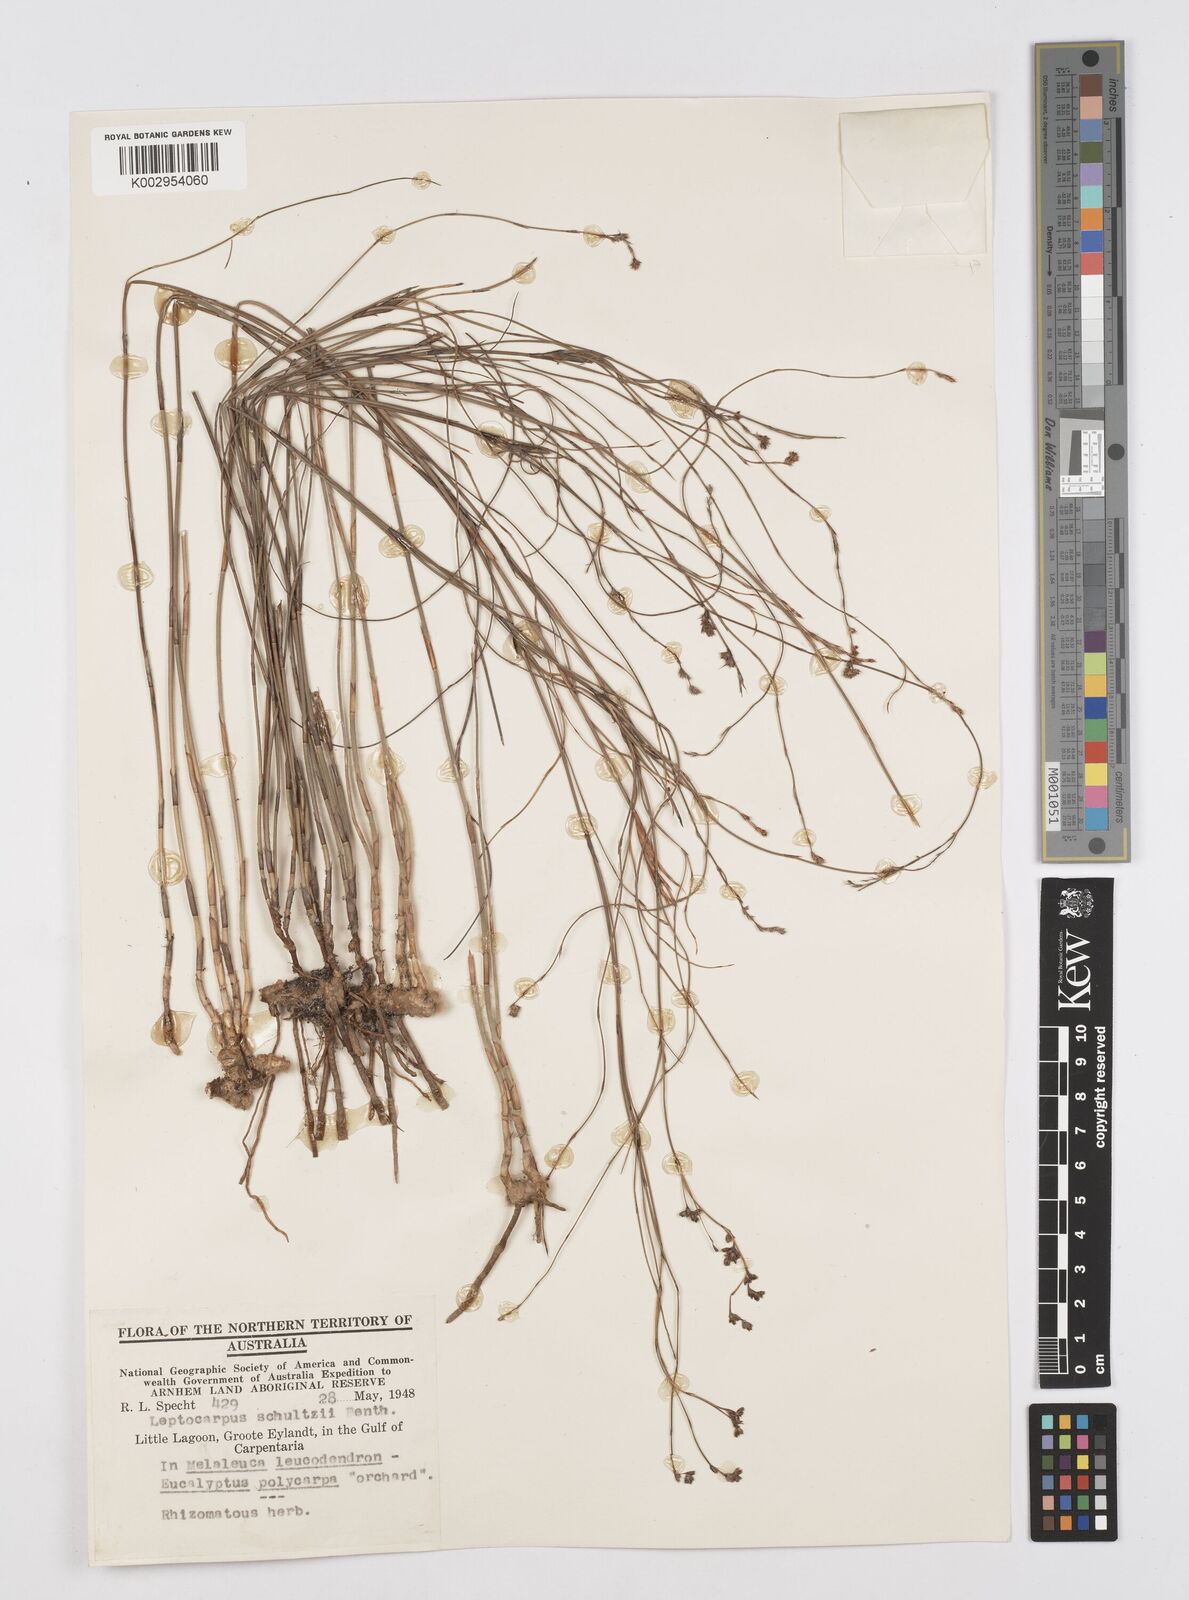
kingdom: Plantae
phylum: Tracheophyta
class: Liliopsida
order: Poales
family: Restionaceae
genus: Dapsilanthus
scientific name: Dapsilanthus spathaceus
